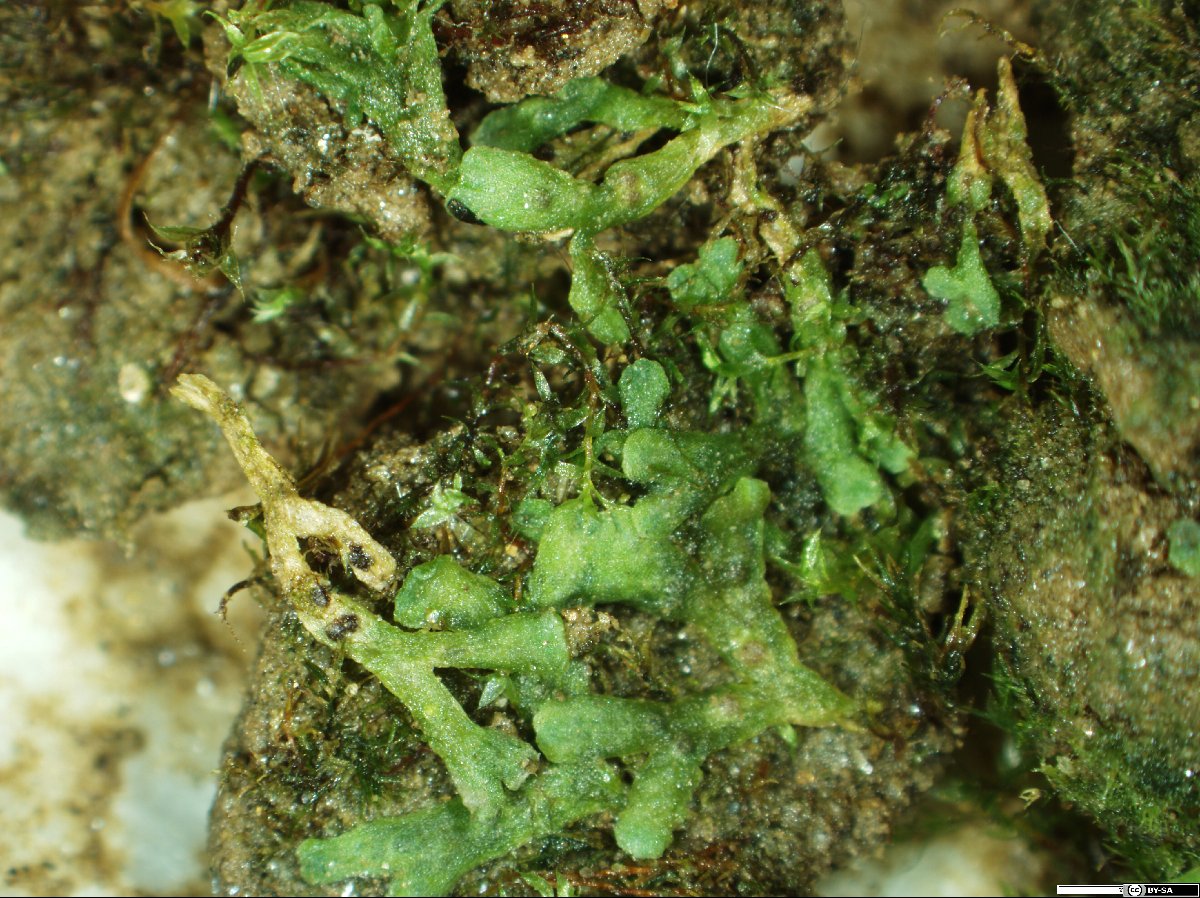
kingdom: Plantae
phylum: Marchantiophyta
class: Marchantiopsida
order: Marchantiales
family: Ricciaceae
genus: Riccia
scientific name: Riccia warnstorfii
